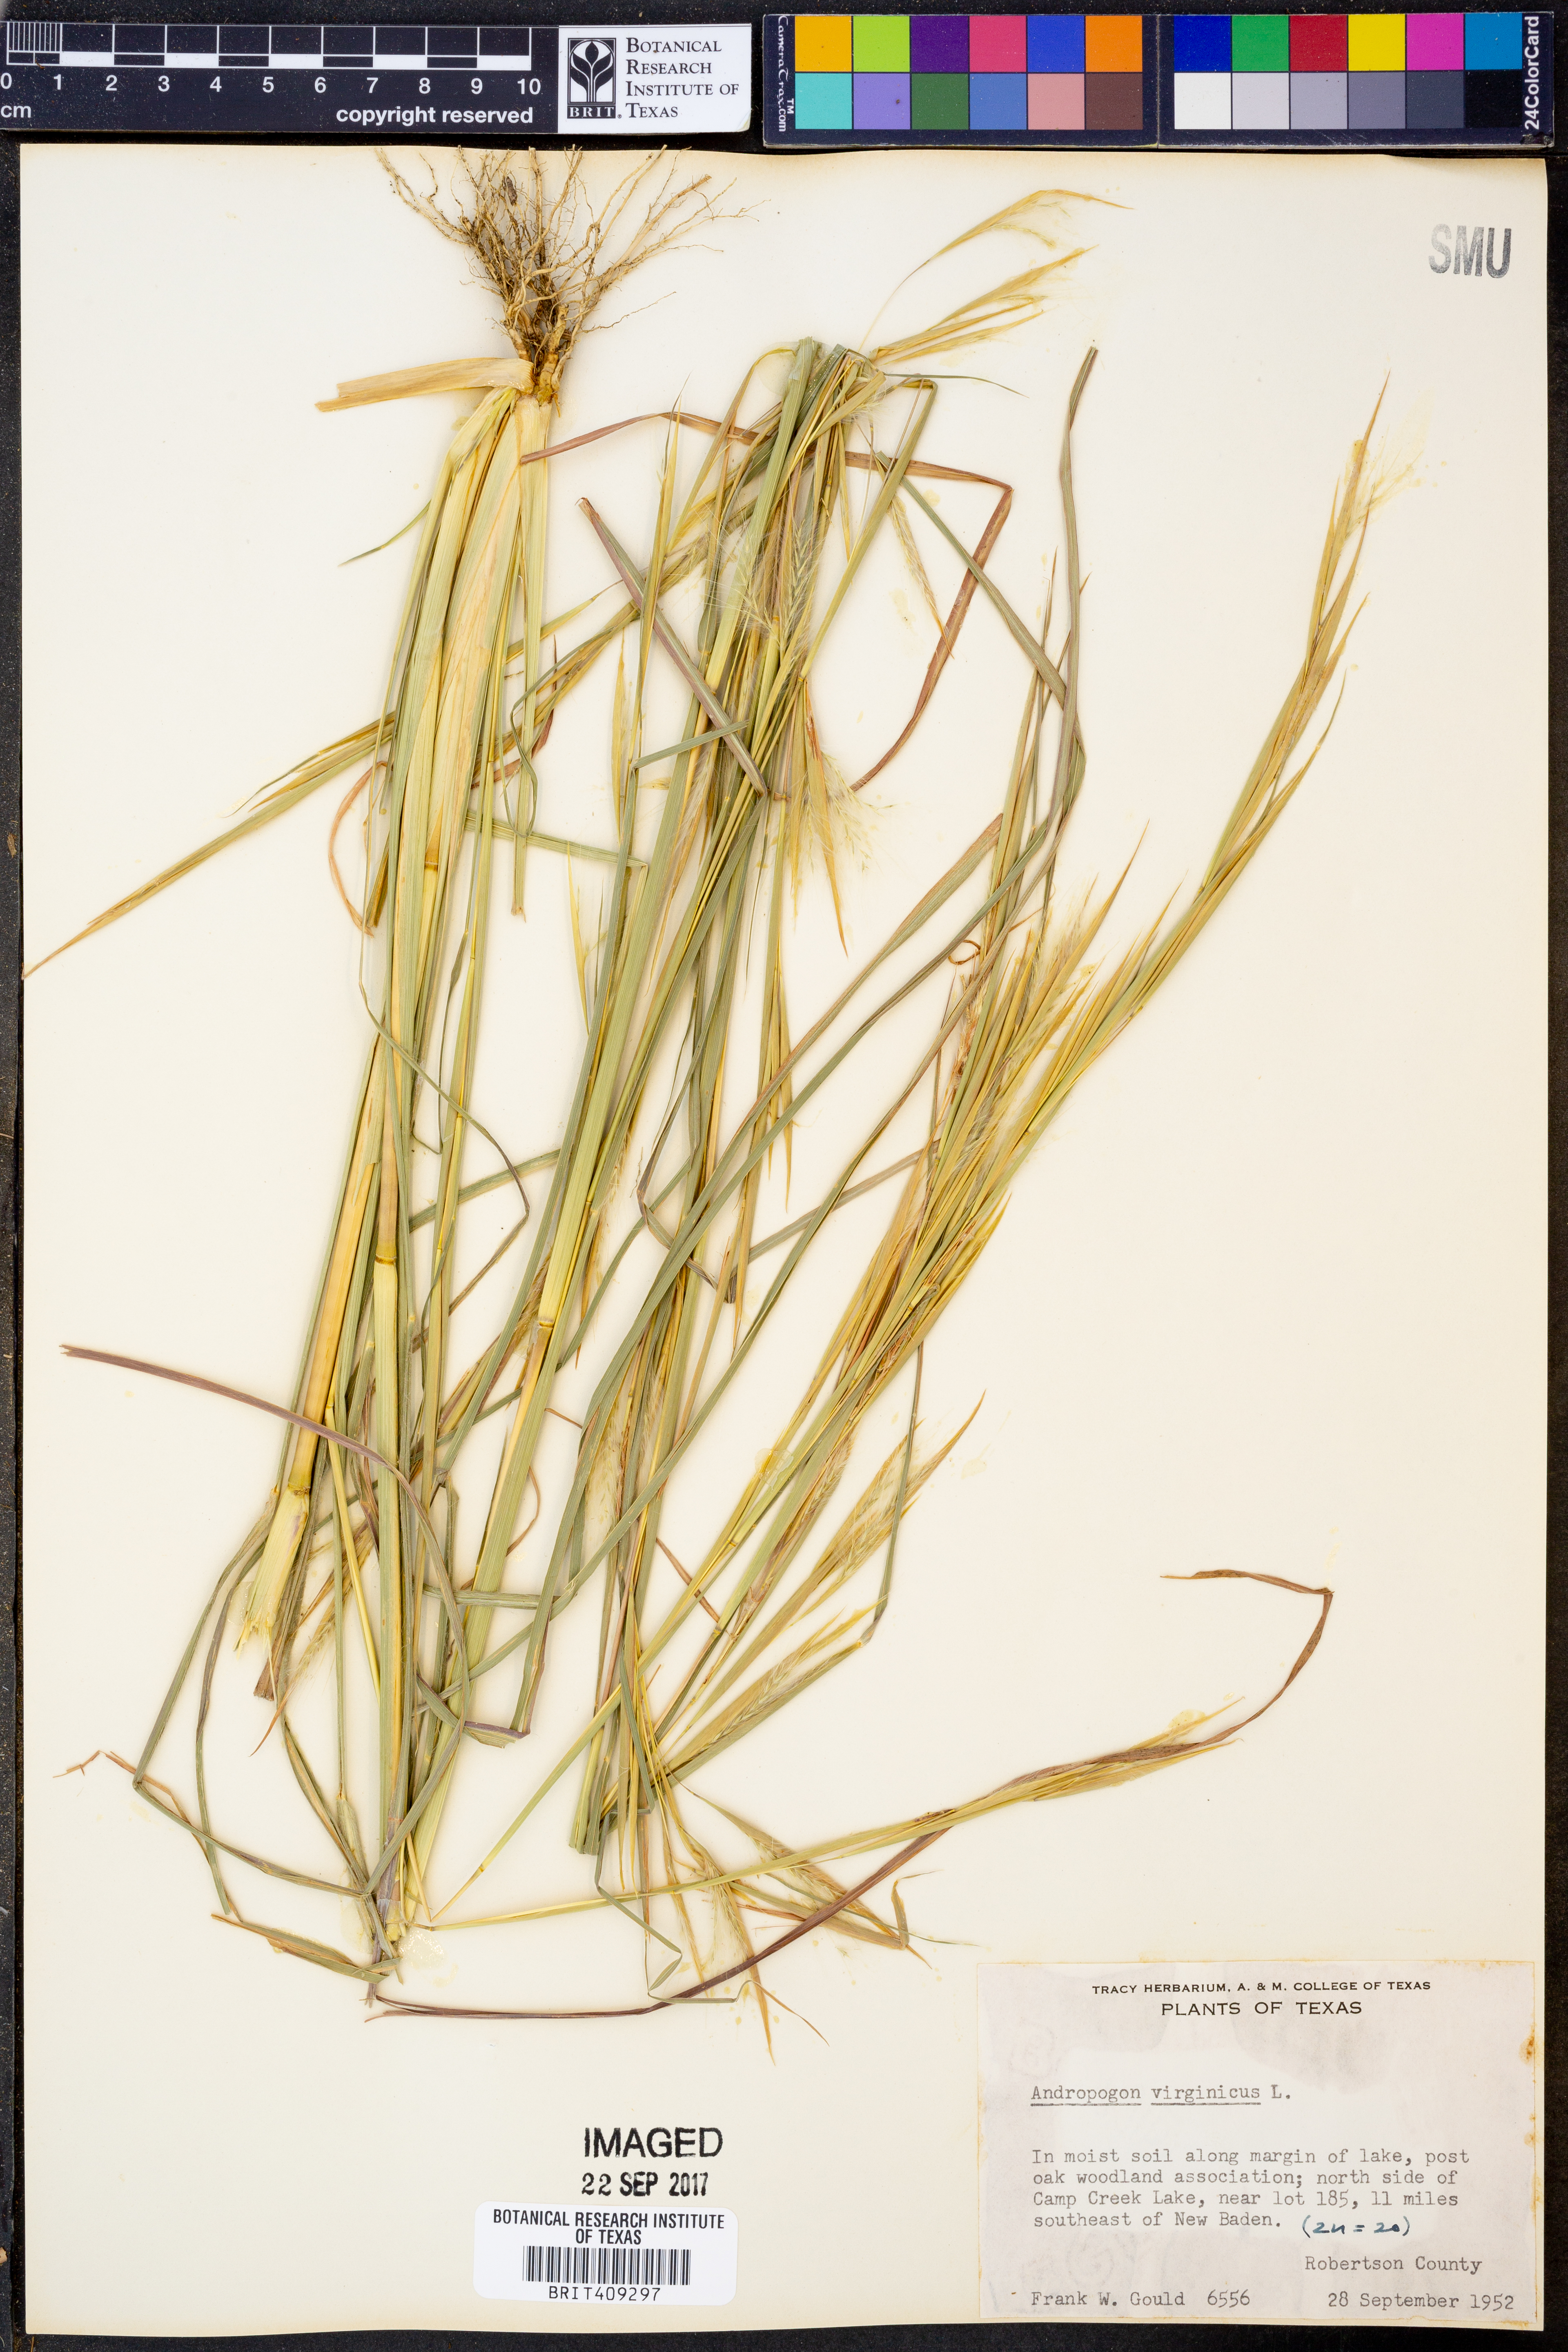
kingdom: Plantae
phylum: Tracheophyta
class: Liliopsida
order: Poales
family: Poaceae
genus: Andropogon
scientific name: Andropogon virginicus
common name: Broomsedge bluestem
